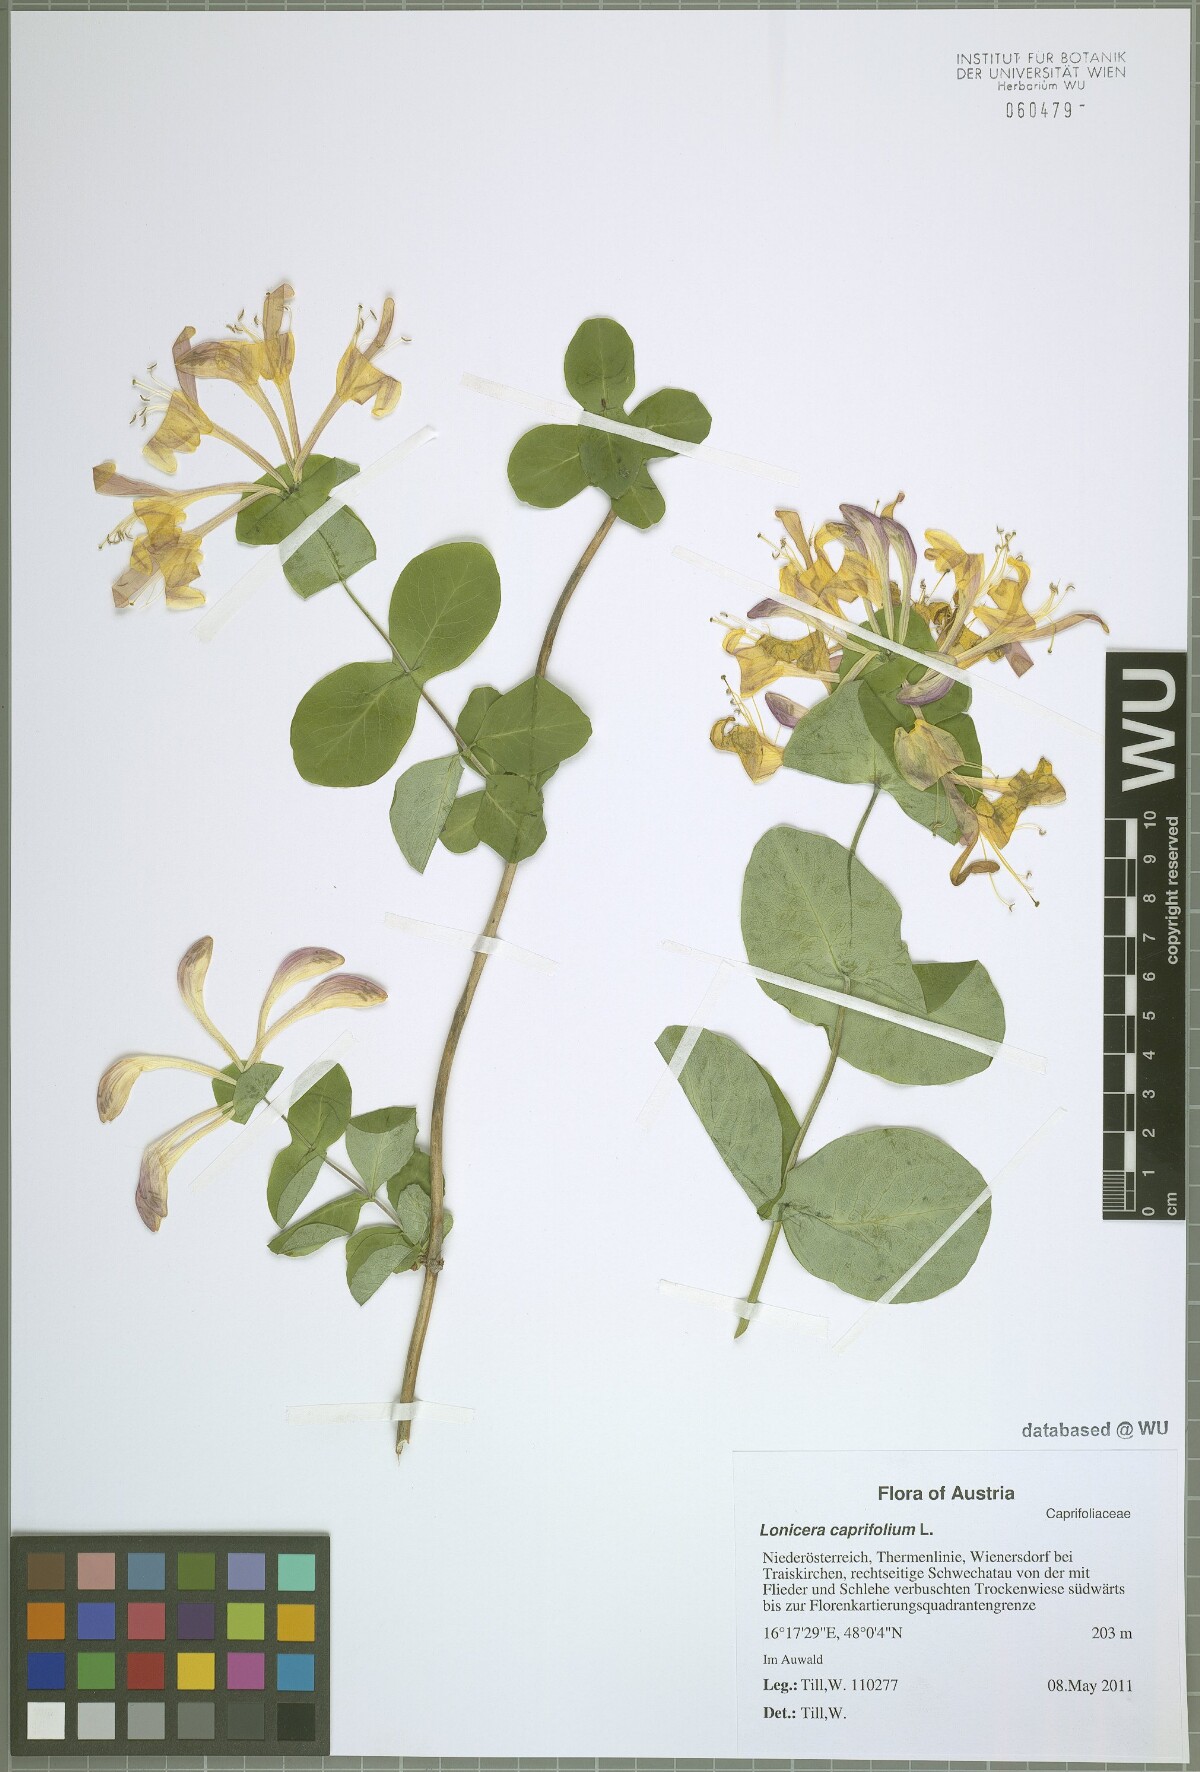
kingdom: Plantae
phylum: Tracheophyta
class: Magnoliopsida
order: Dipsacales
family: Caprifoliaceae
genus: Lonicera
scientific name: Lonicera caprifolium
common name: Perfoliate honeysuckle
